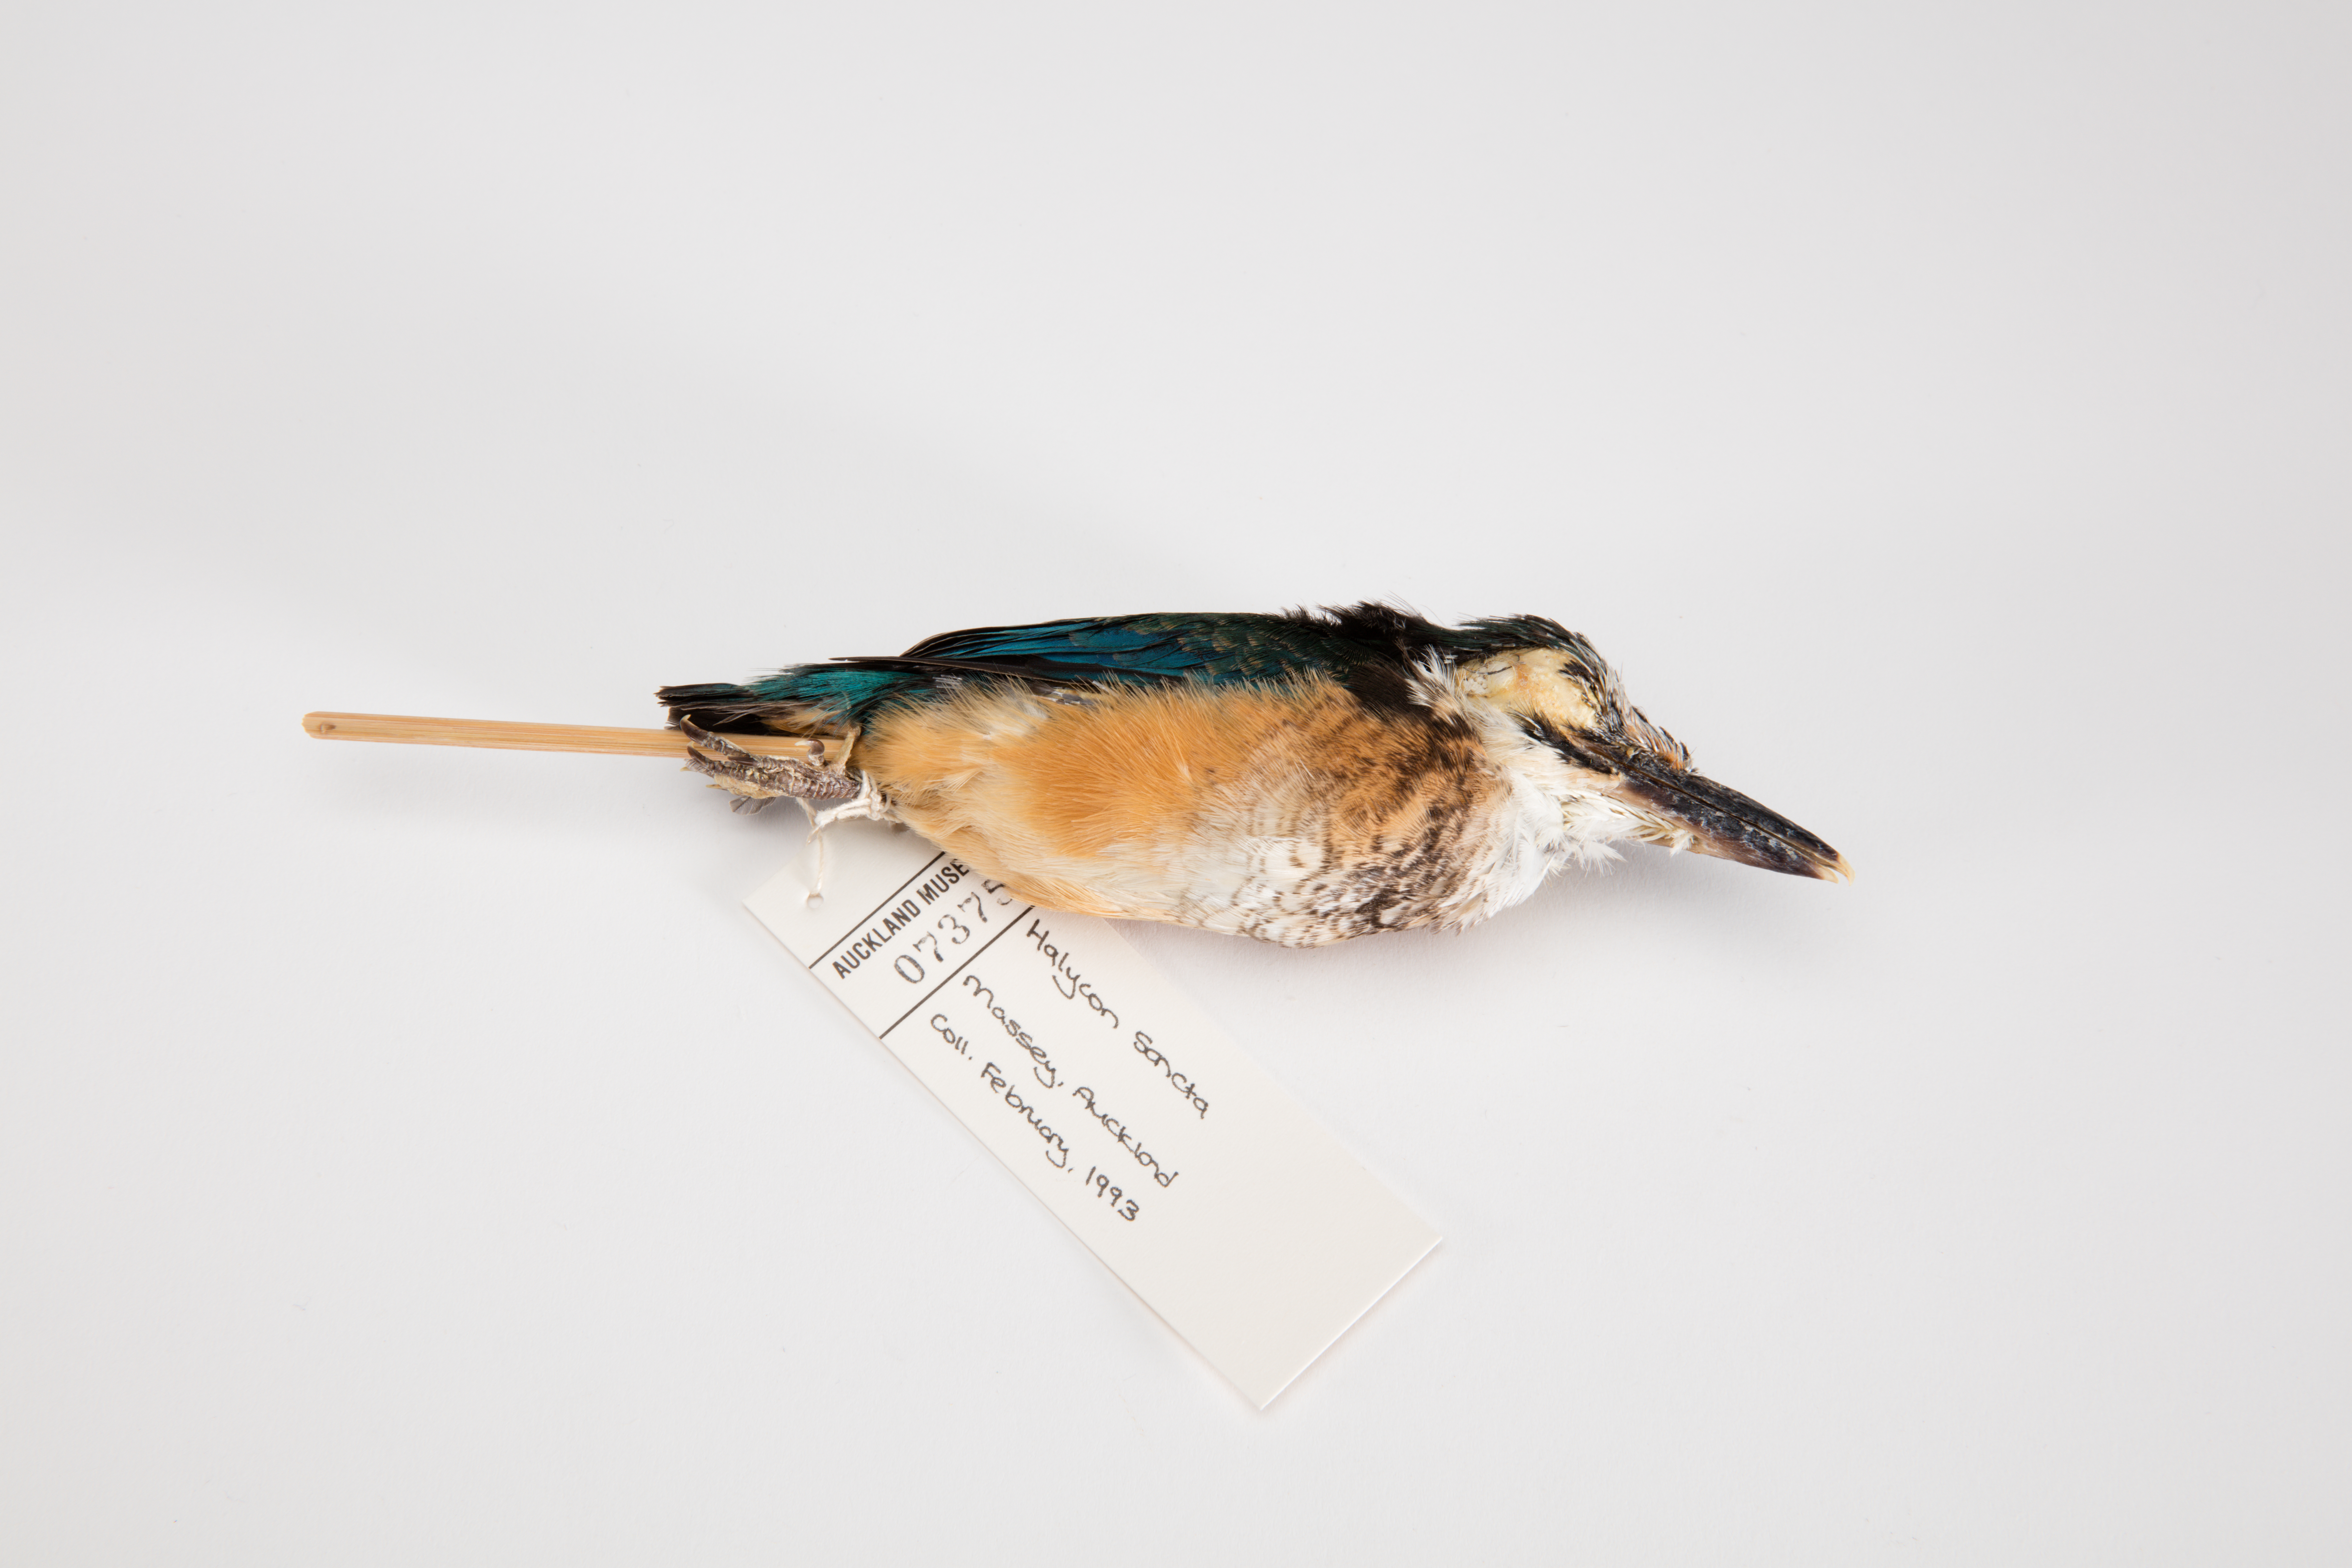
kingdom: Animalia
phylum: Chordata
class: Aves
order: Coraciiformes
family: Alcedinidae
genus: Todiramphus
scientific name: Todiramphus sanctus
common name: Sacred kingfisher
